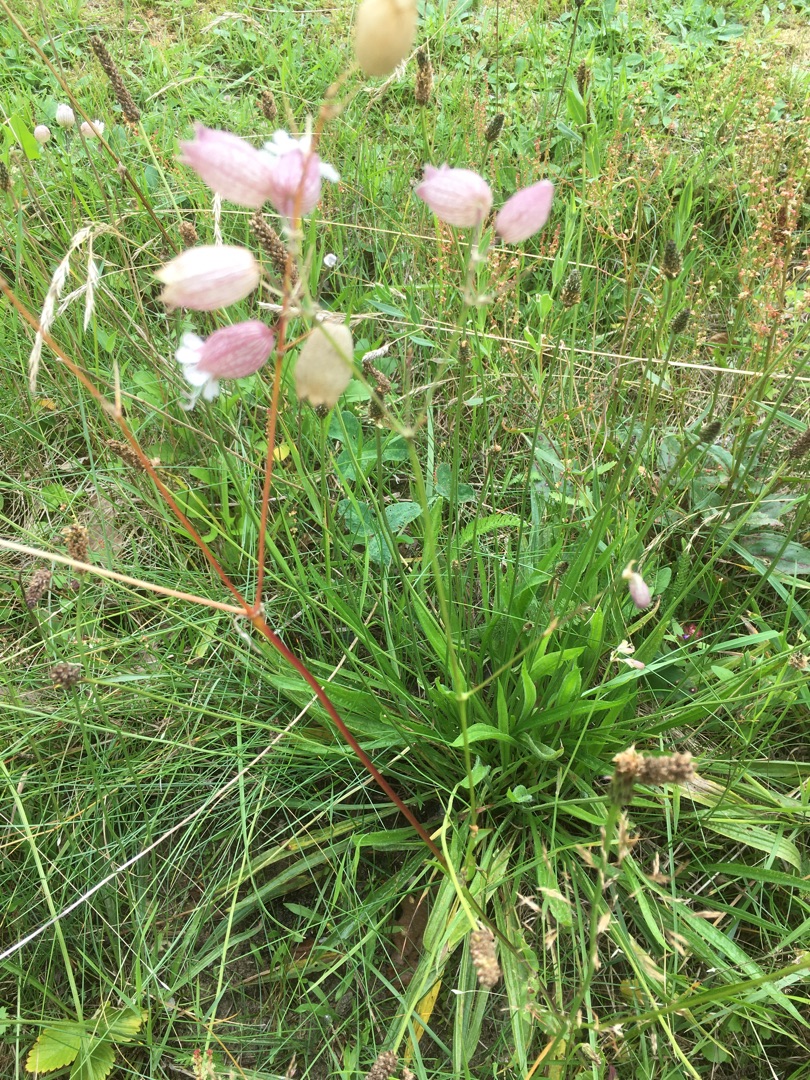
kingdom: Plantae
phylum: Tracheophyta
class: Magnoliopsida
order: Caryophyllales
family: Caryophyllaceae
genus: Silene
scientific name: Silene vulgaris
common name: Blæresmælde
